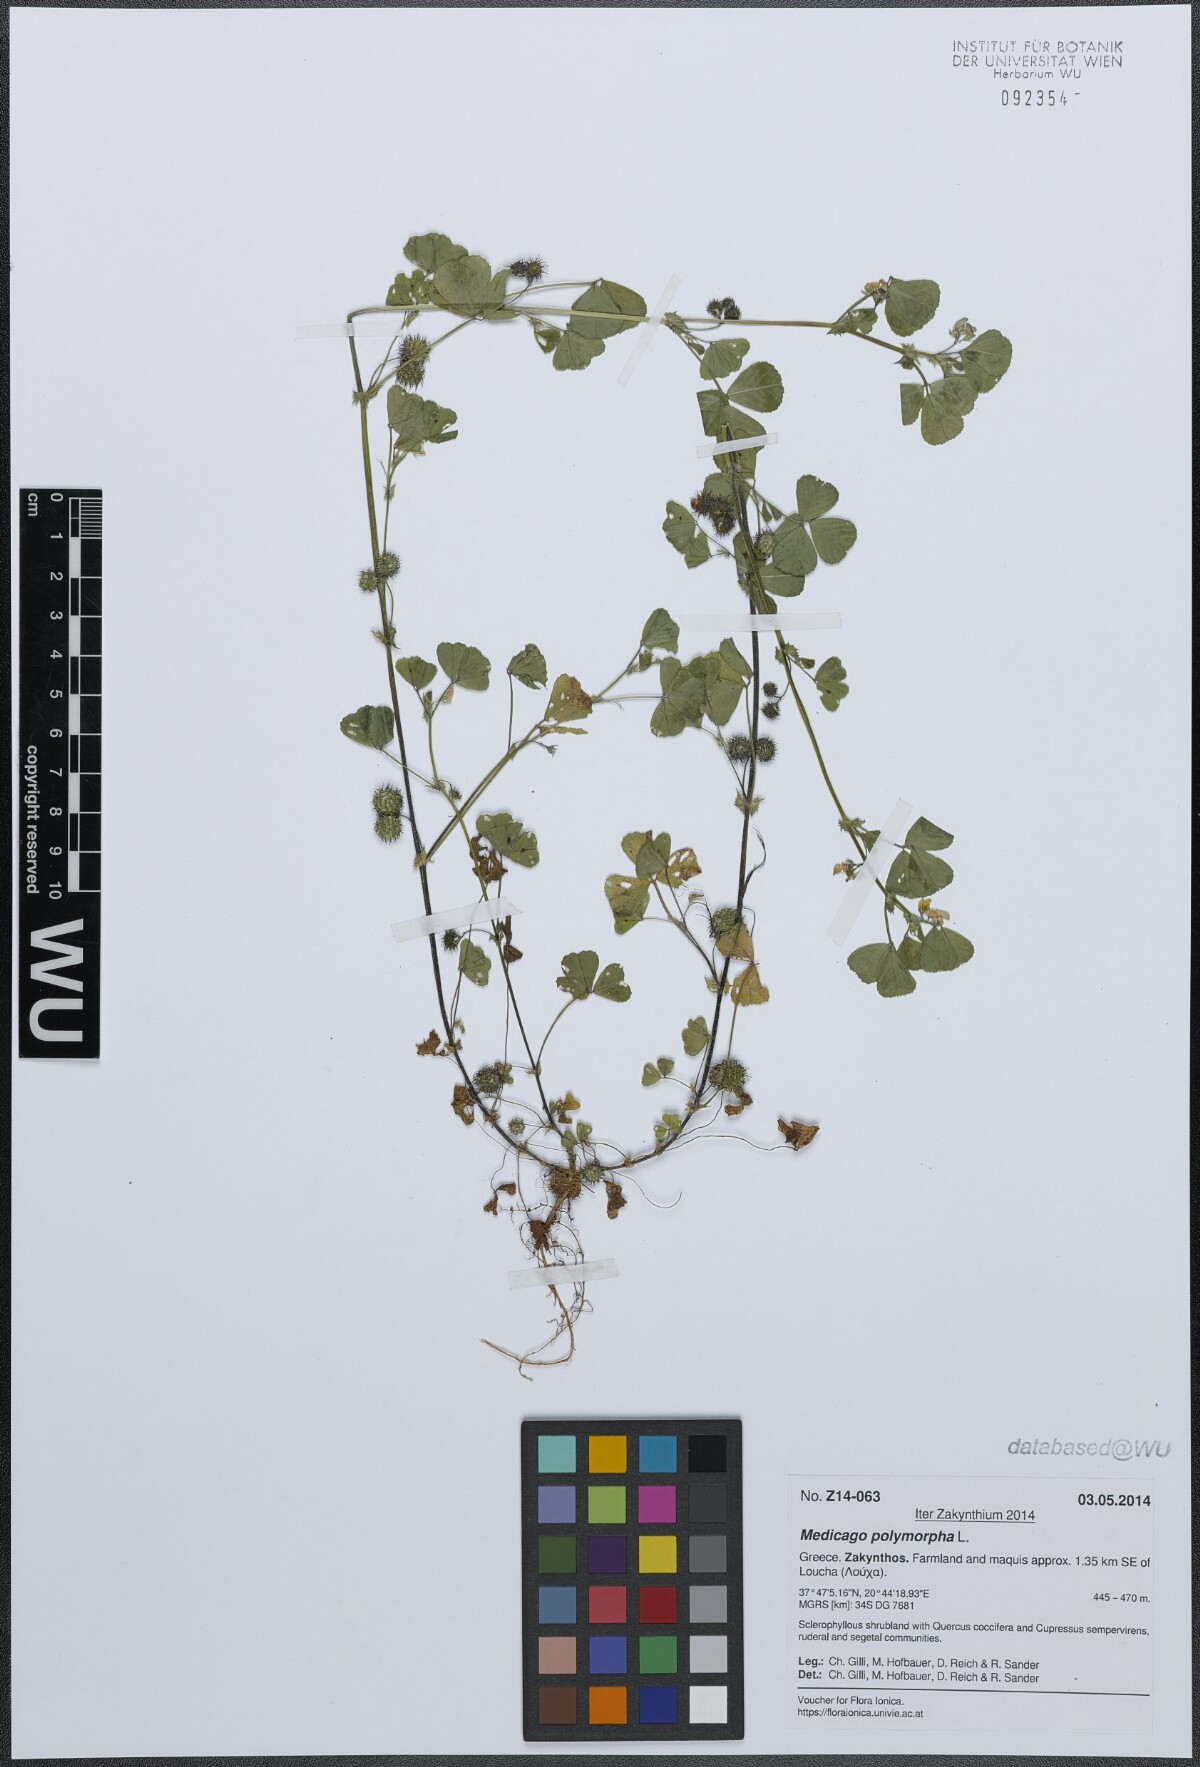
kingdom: Plantae
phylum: Tracheophyta
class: Magnoliopsida
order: Fabales
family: Fabaceae
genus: Medicago
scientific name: Medicago polymorpha
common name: Burclover
